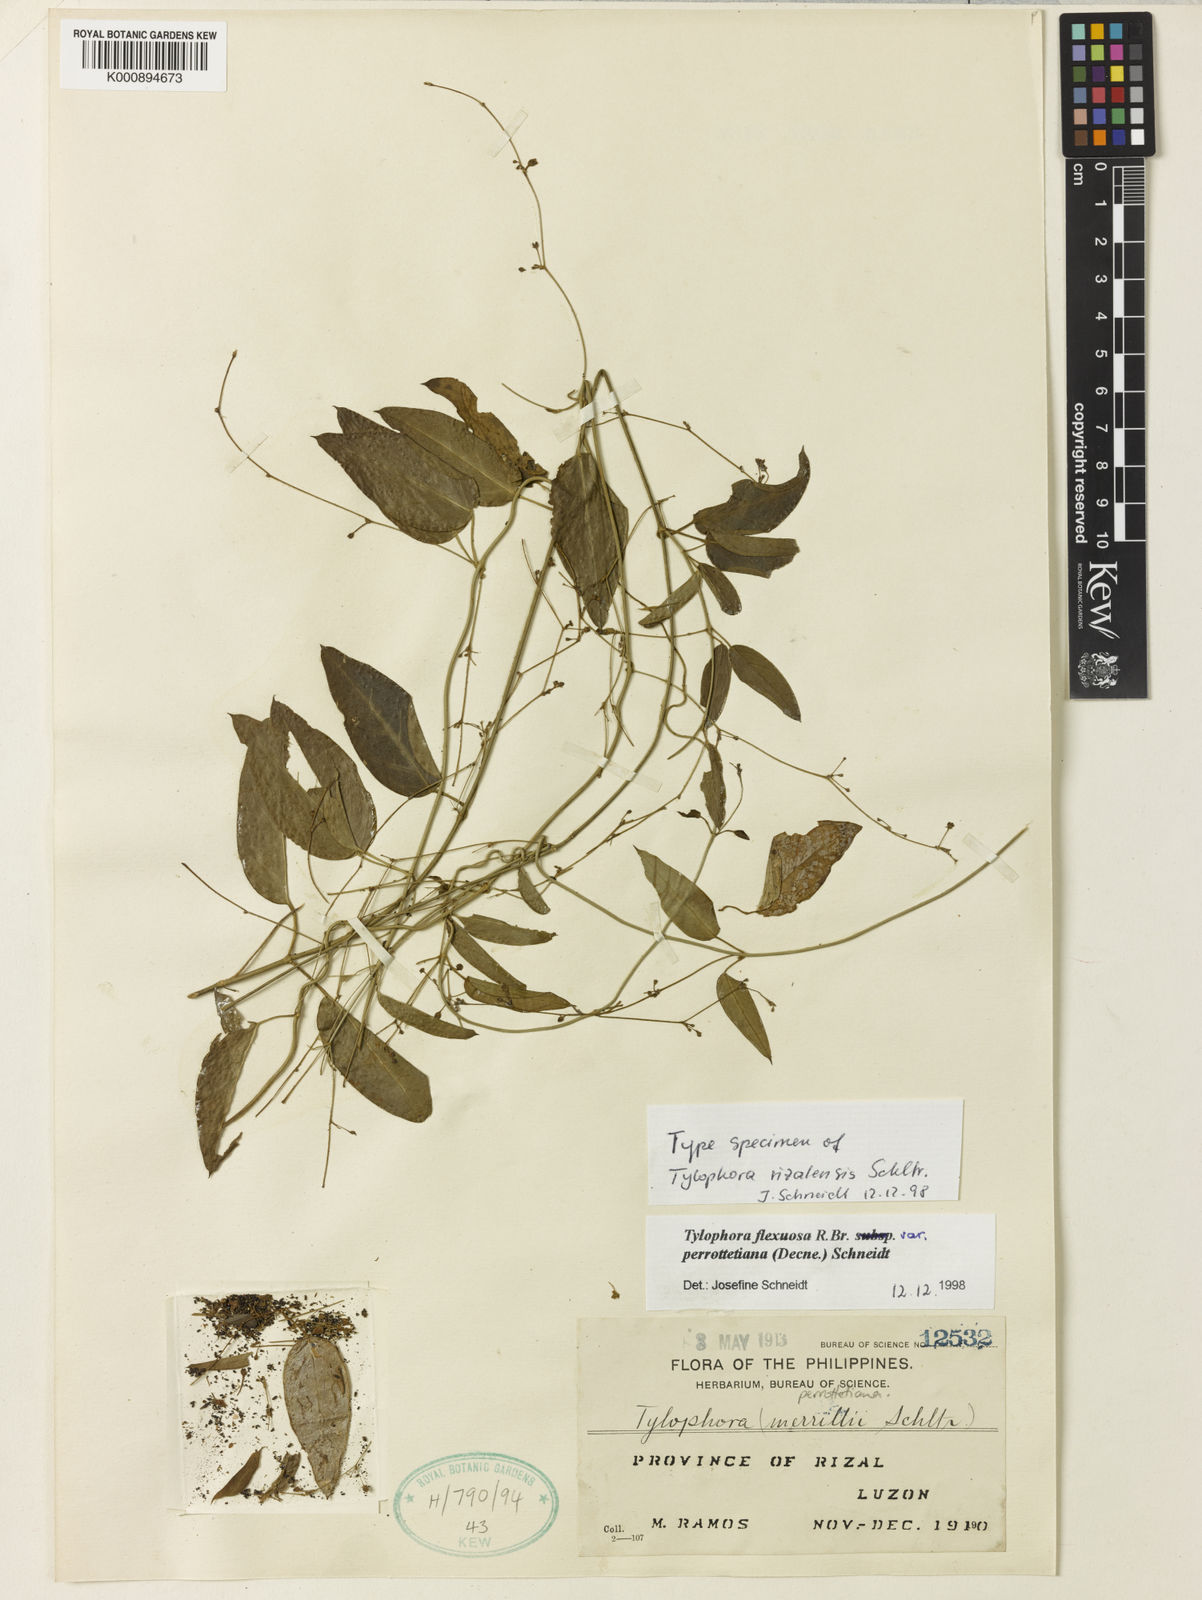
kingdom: Plantae
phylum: Tracheophyta
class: Magnoliopsida
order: Gentianales
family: Apocynaceae
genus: Vincetoxicum
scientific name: Vincetoxicum flexuosum
